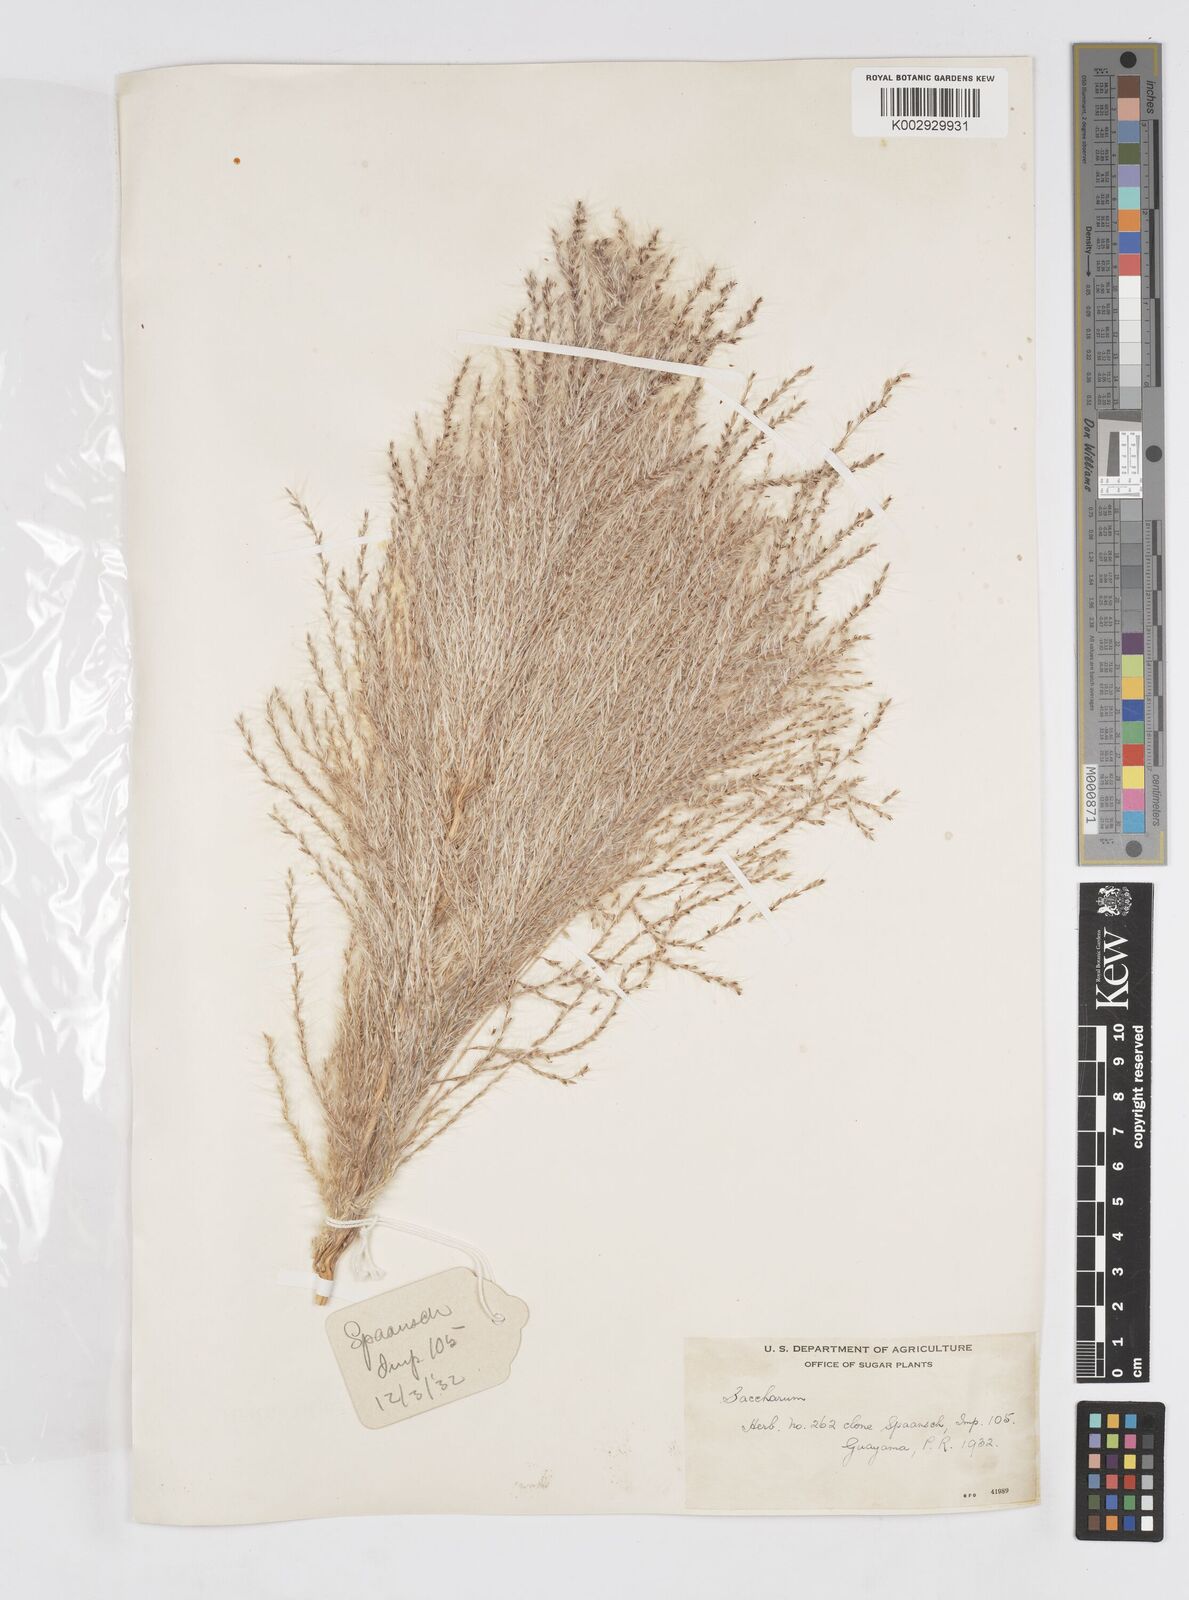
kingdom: Plantae
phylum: Tracheophyta
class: Liliopsida
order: Poales
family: Poaceae
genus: Saccharum
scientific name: Saccharum officinarum
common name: Sugarcane
